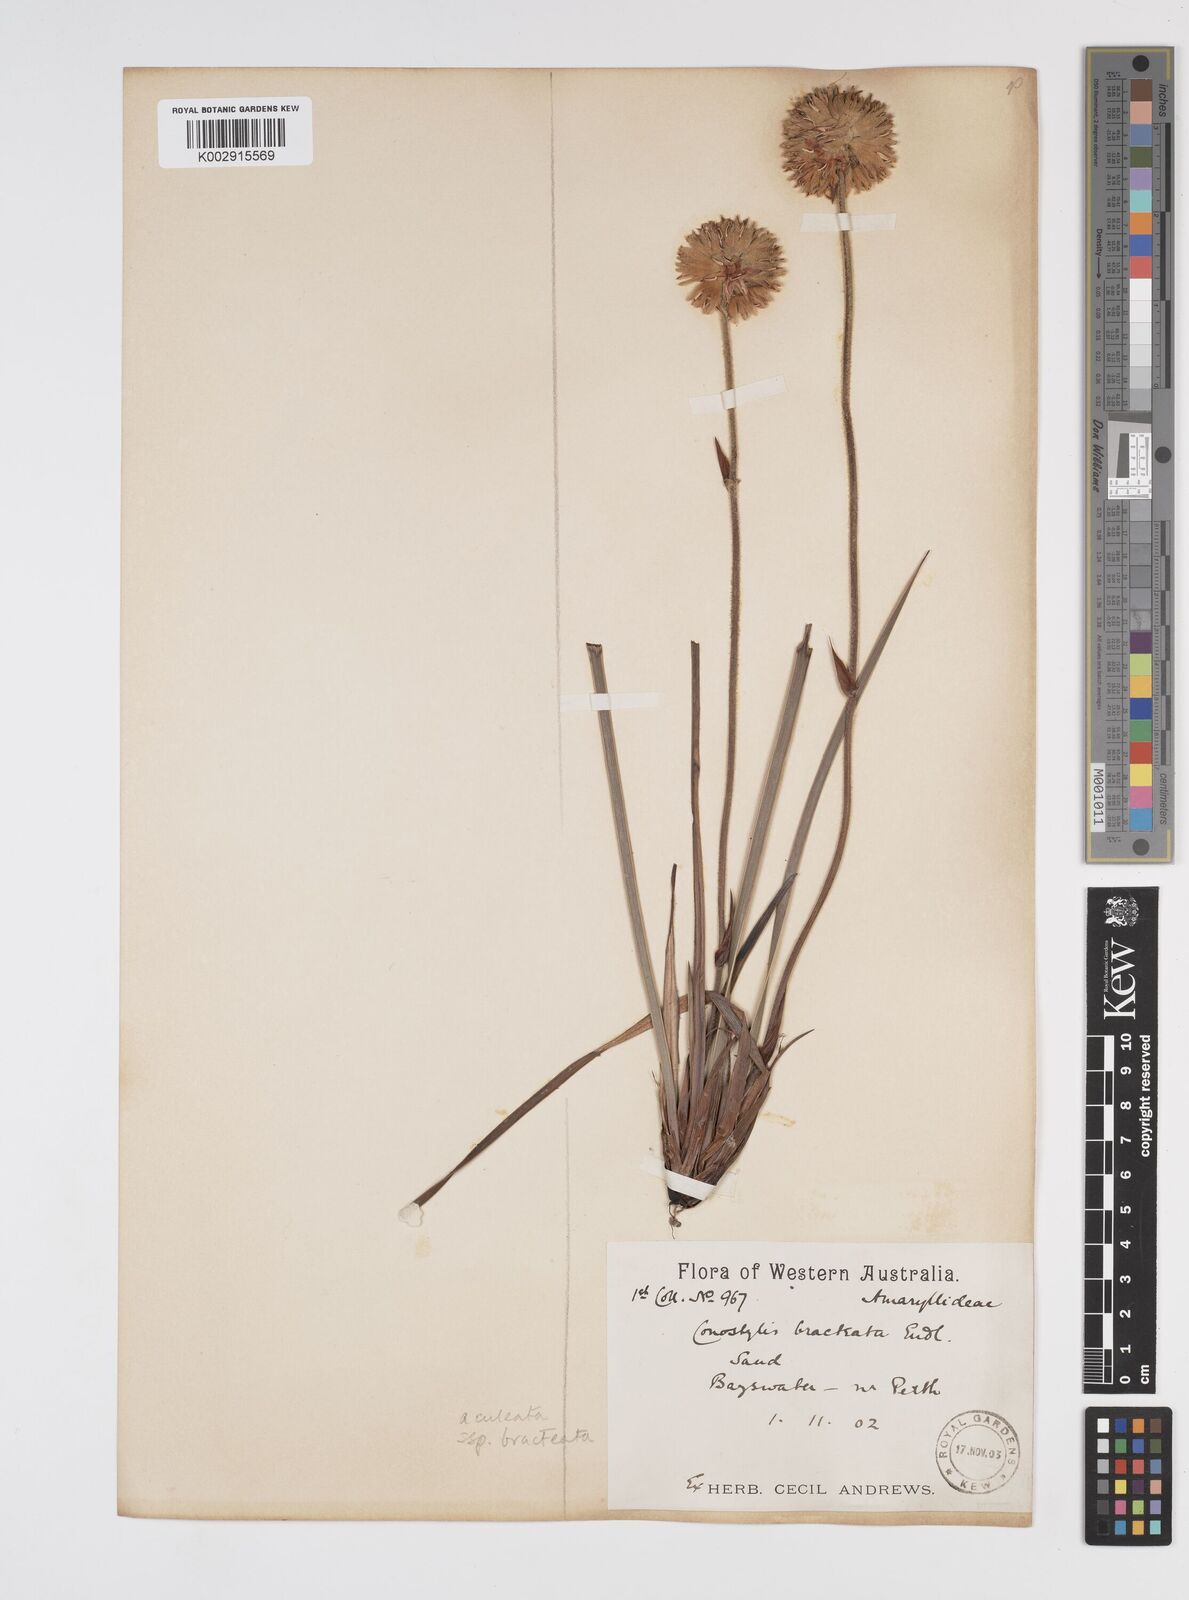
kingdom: Plantae
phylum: Tracheophyta
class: Liliopsida
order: Commelinales
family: Haemodoraceae
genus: Conostylis
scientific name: Conostylis bracteata
